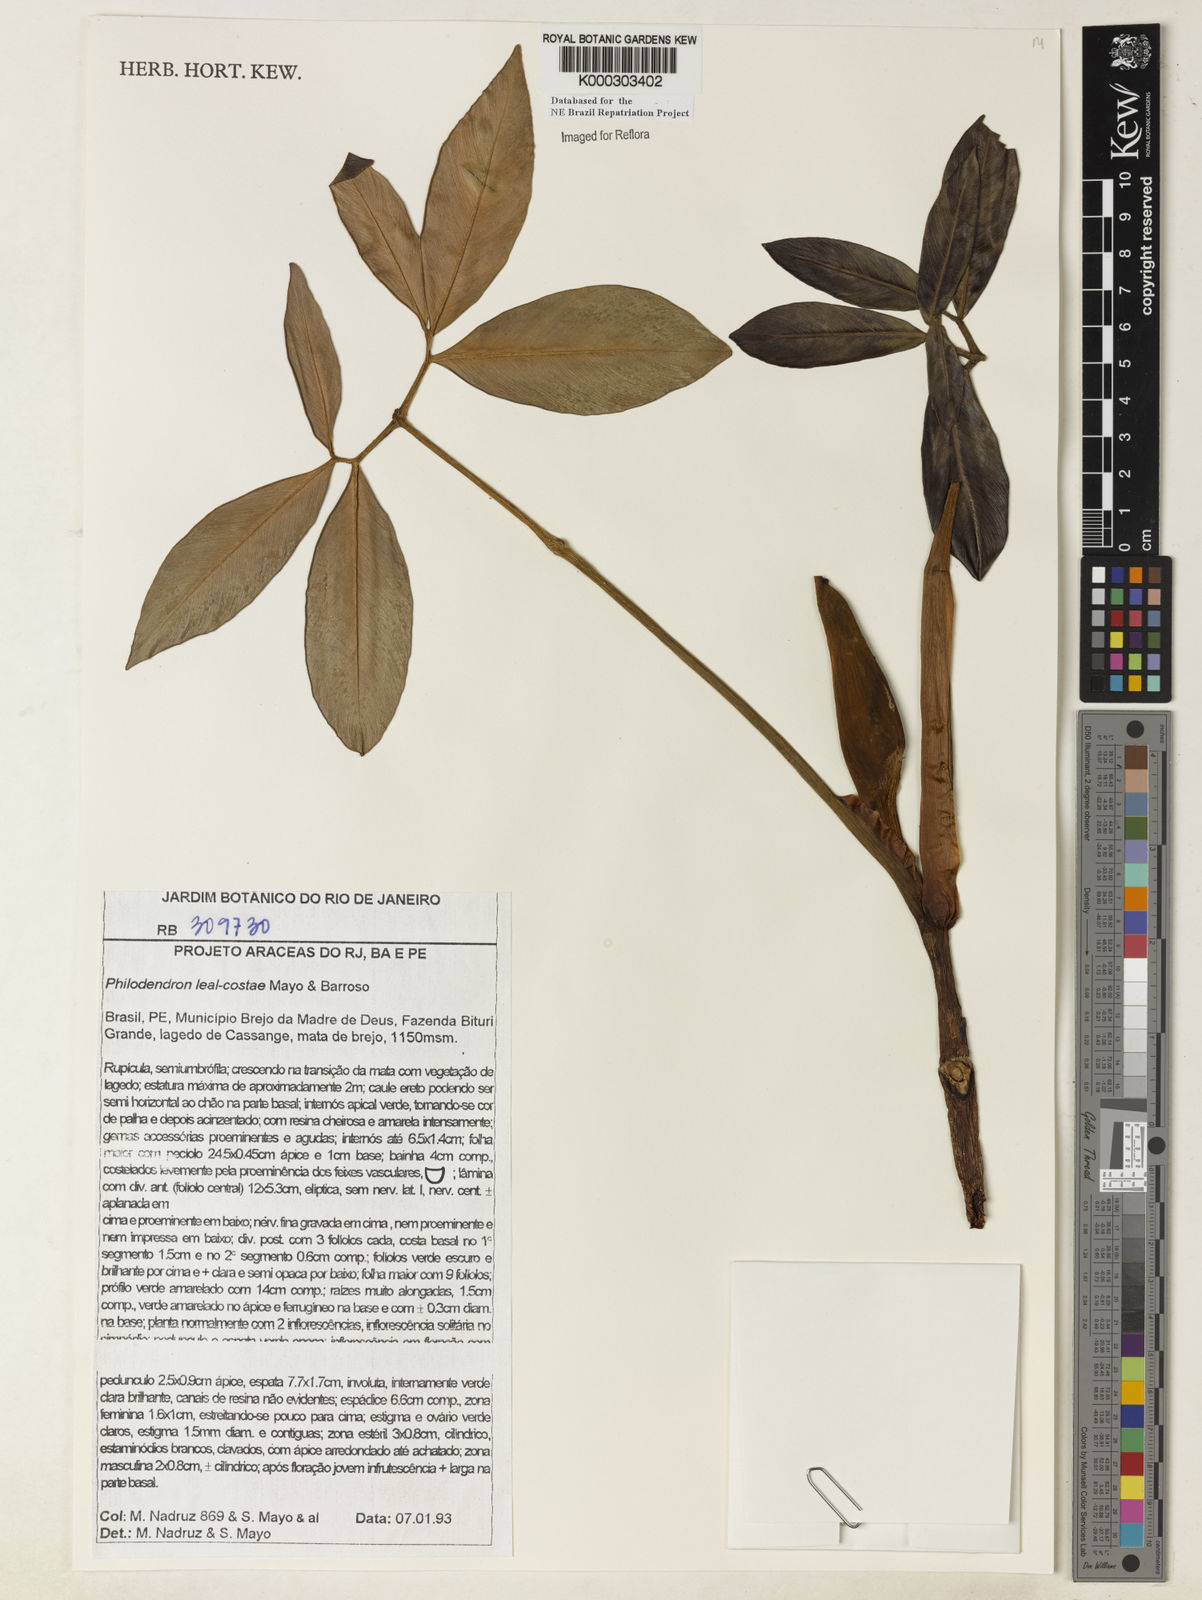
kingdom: Plantae
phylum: Tracheophyta
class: Liliopsida
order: Alismatales
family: Araceae
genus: Thaumatophyllum
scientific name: Thaumatophyllum leal-costae
